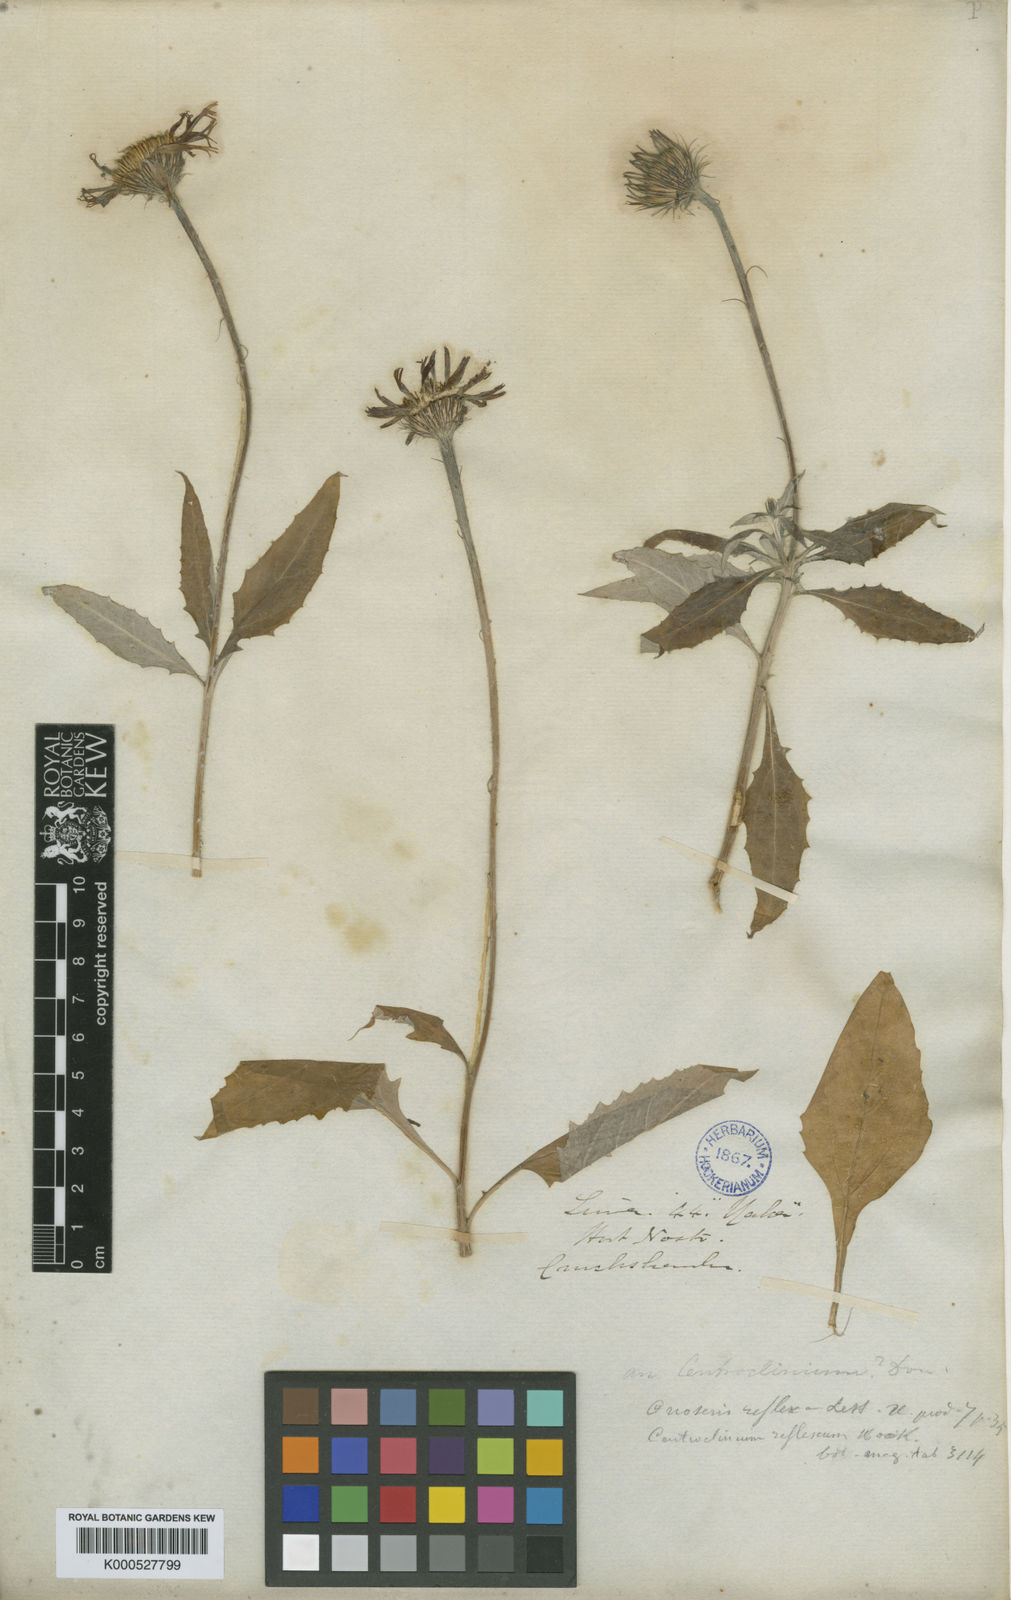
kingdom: Plantae
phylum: Tracheophyta
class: Magnoliopsida
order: Asterales
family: Asteraceae
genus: Onoseris
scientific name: Onoseris albicans
